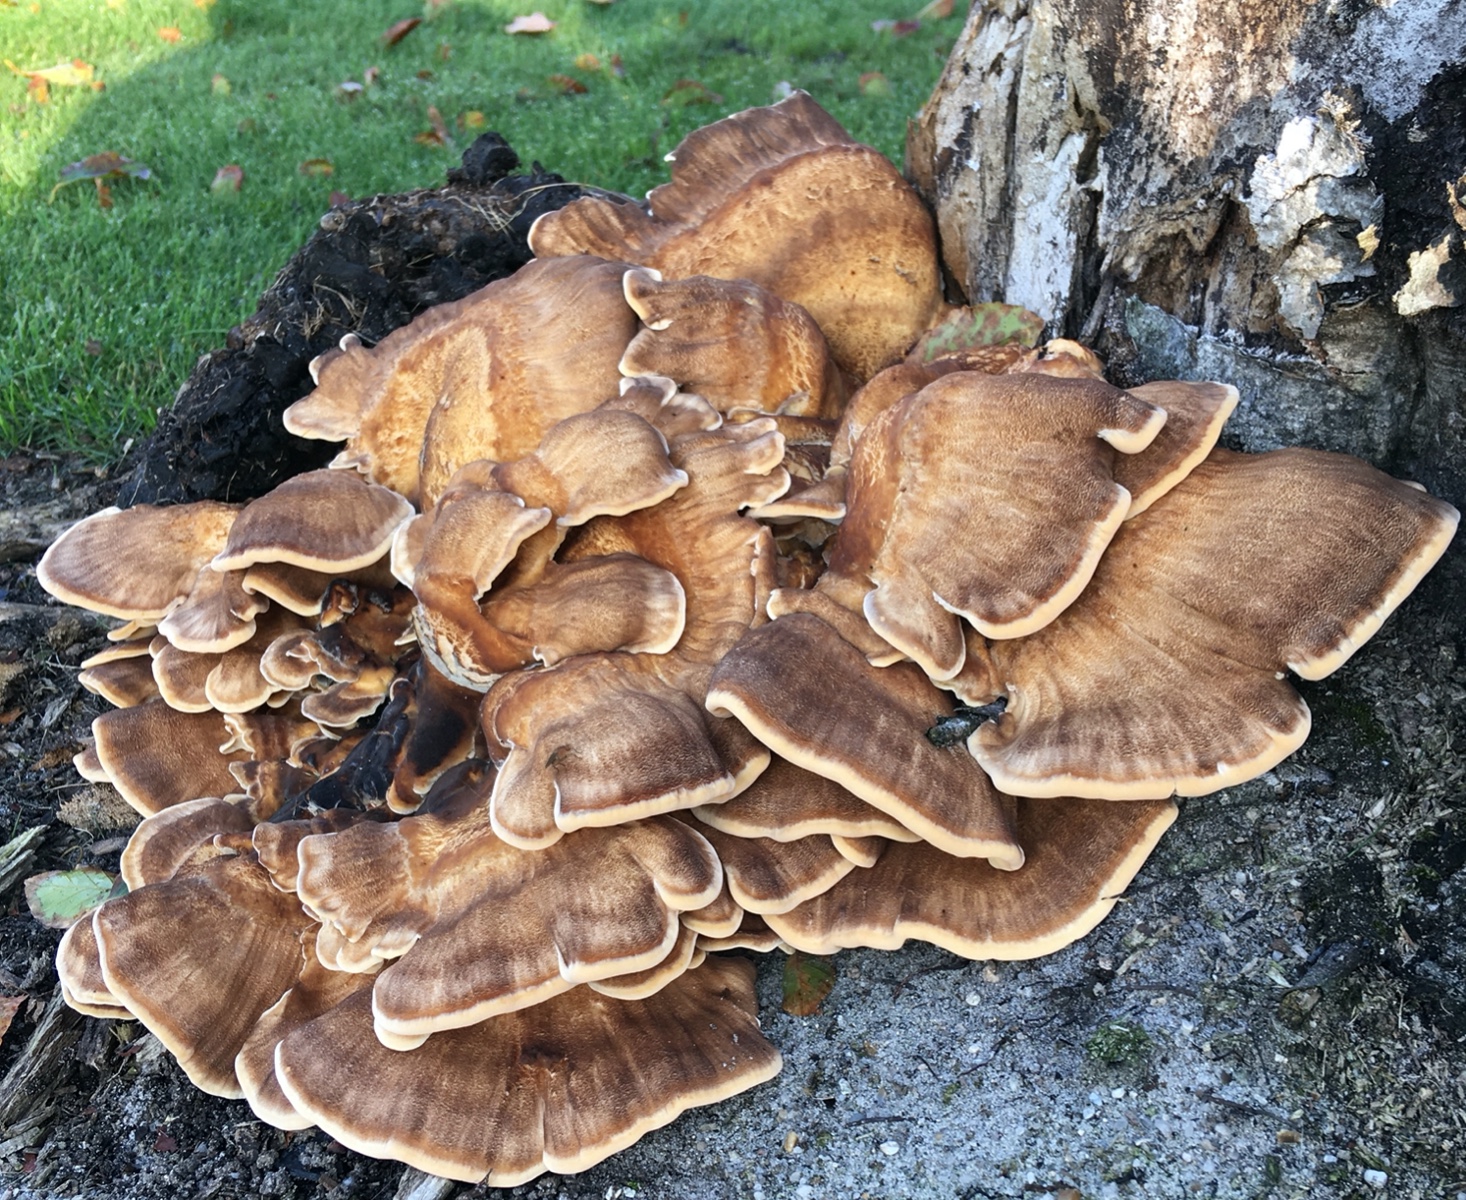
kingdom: Fungi
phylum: Basidiomycota
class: Agaricomycetes
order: Polyporales
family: Meripilaceae
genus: Meripilus
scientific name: Meripilus giganteus
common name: kæmpeporesvamp
